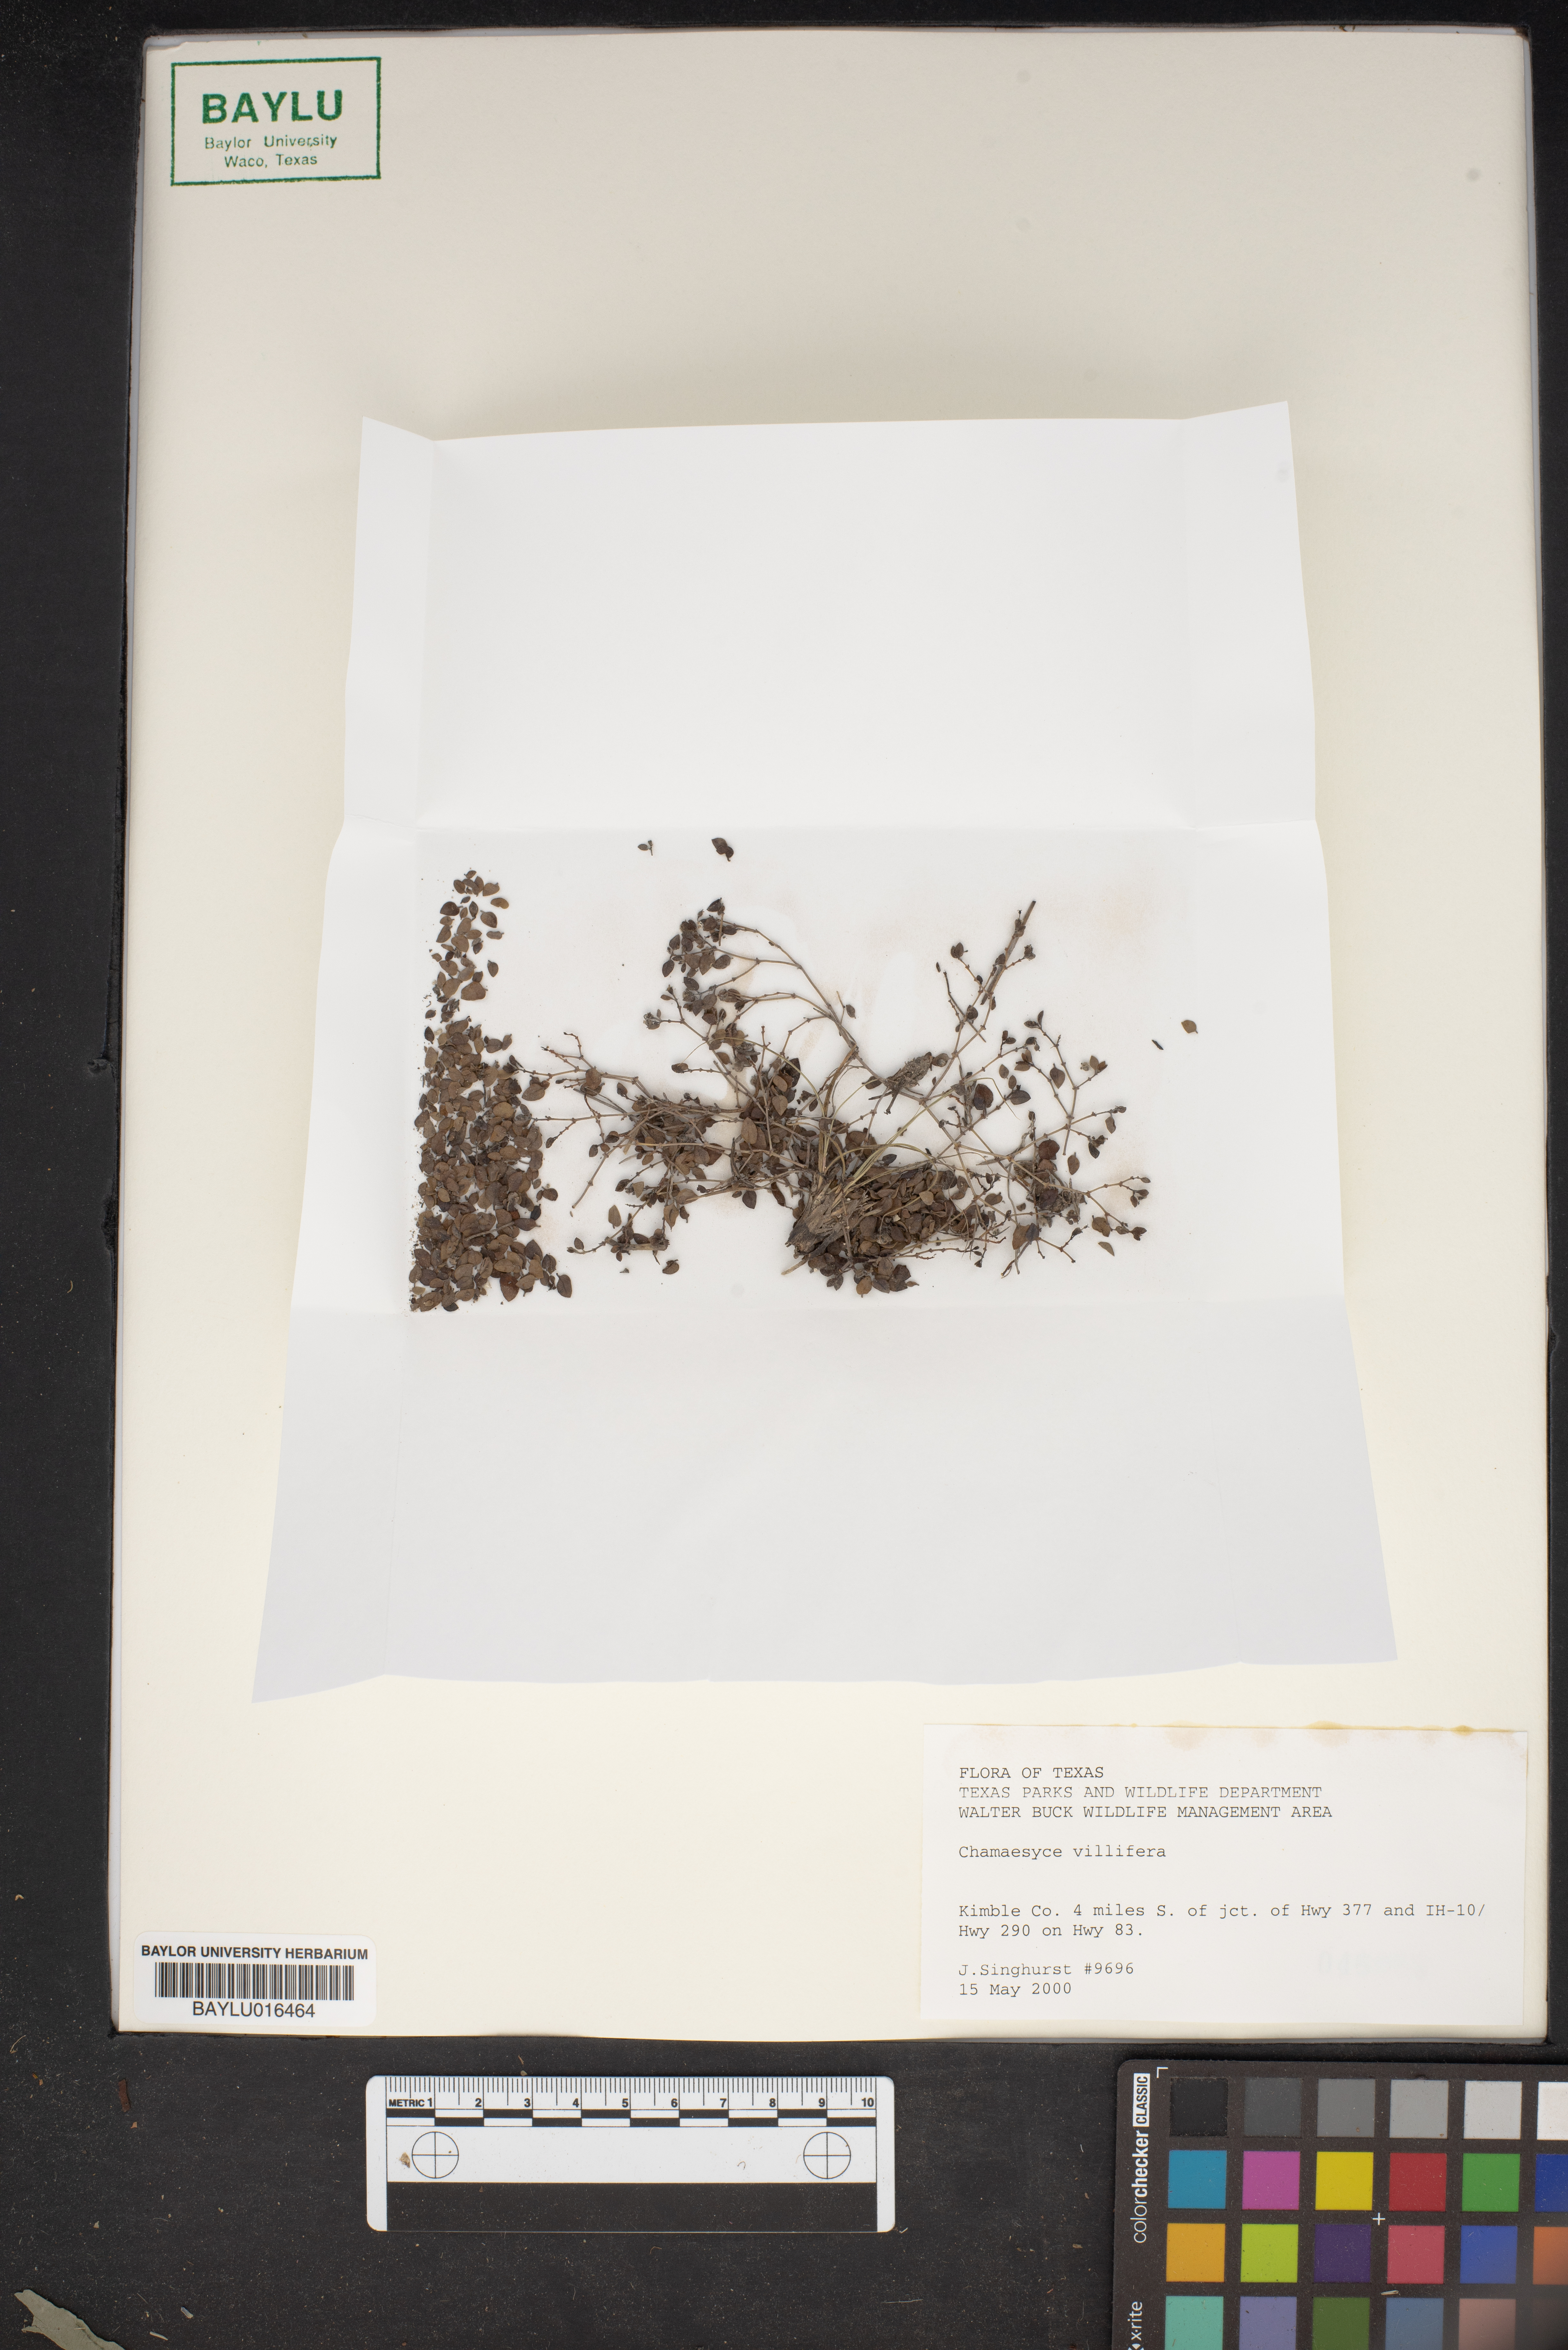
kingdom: Plantae
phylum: Tracheophyta
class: Magnoliopsida
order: Malpighiales
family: Euphorbiaceae
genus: Euphorbia
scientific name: Euphorbia villifera
